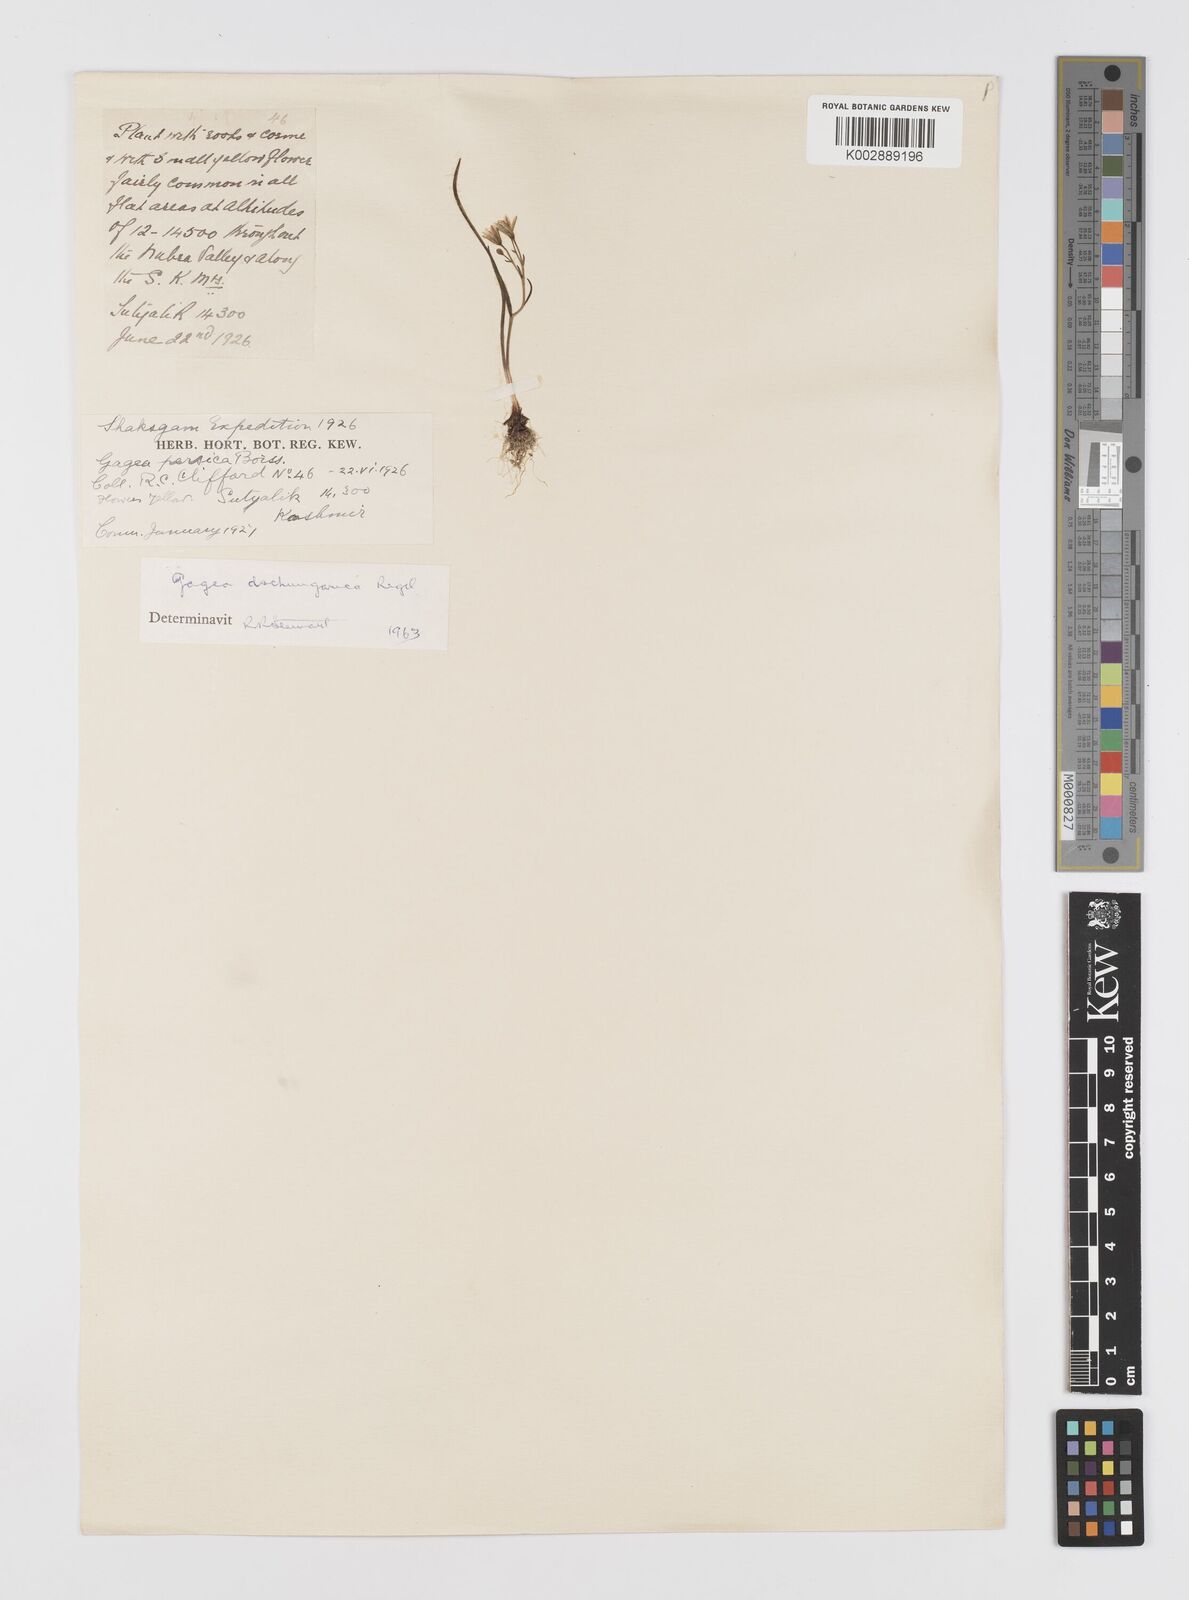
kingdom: Plantae
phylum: Tracheophyta
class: Liliopsida
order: Liliales
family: Liliaceae
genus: Gagea
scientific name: Gagea dschungarica
